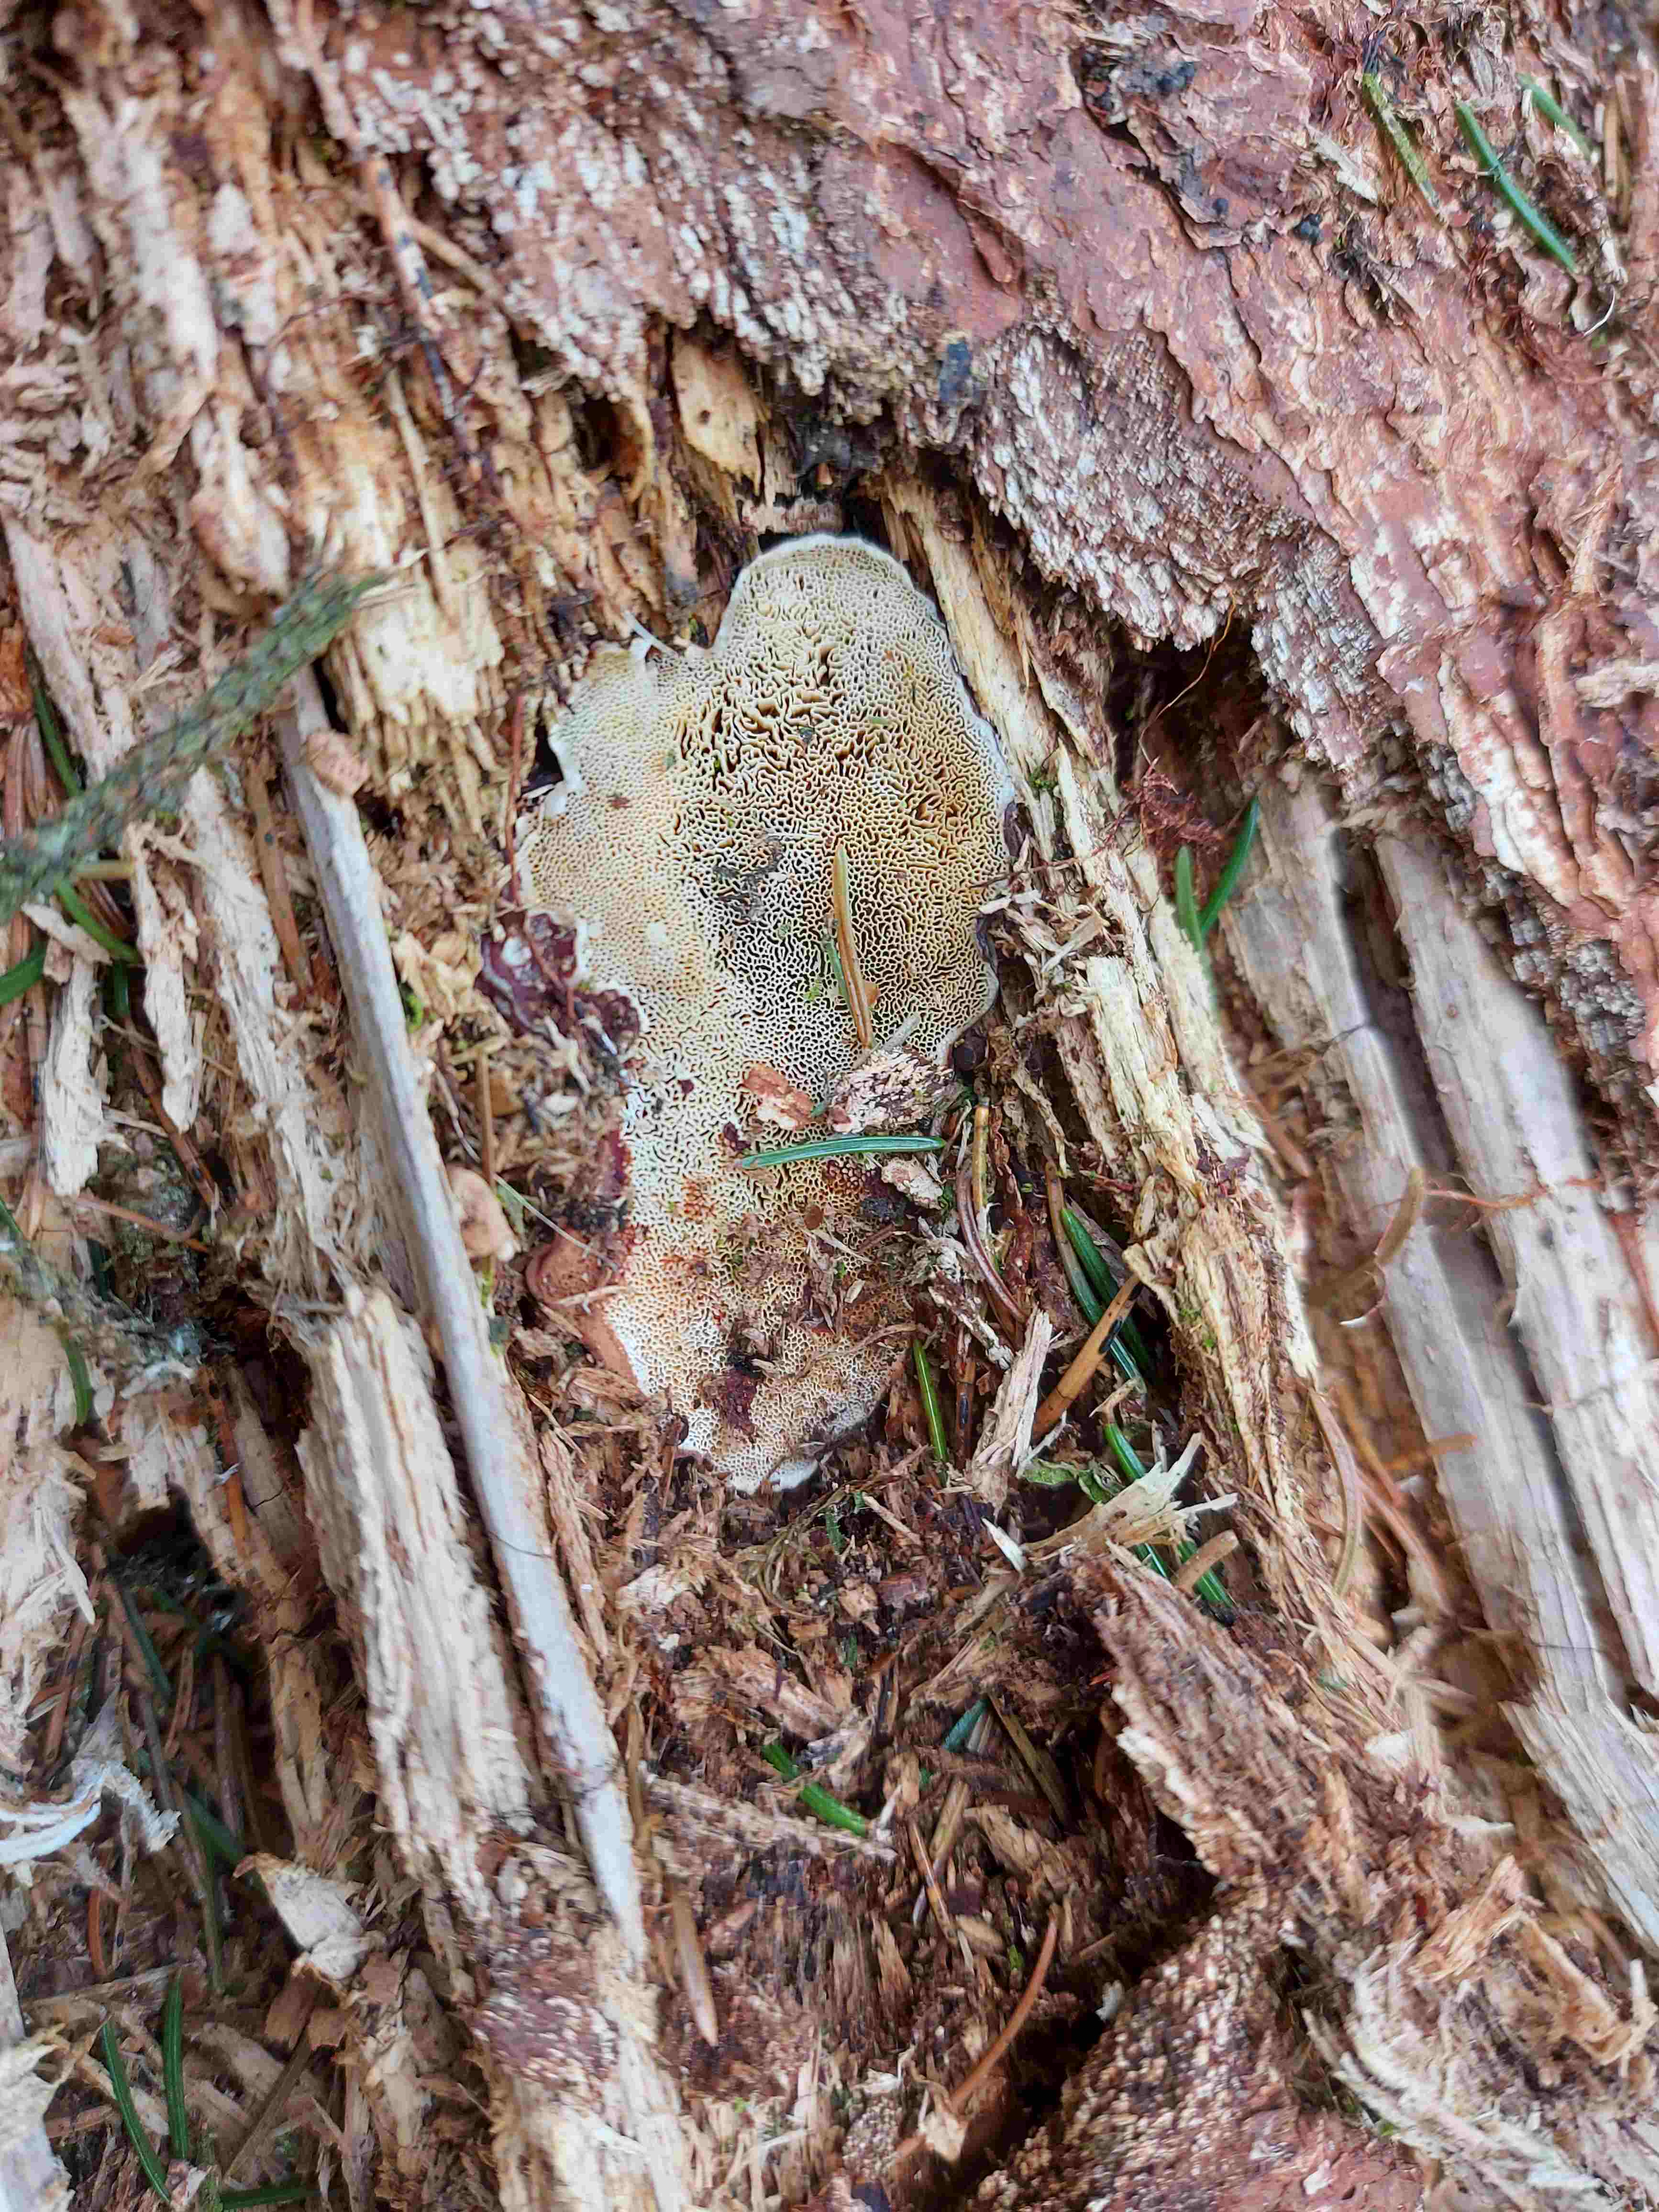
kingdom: Fungi
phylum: Basidiomycota
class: Agaricomycetes
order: Russulales
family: Bondarzewiaceae
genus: Heterobasidion
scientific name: Heterobasidion annosum
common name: almindelig rodfordærver
